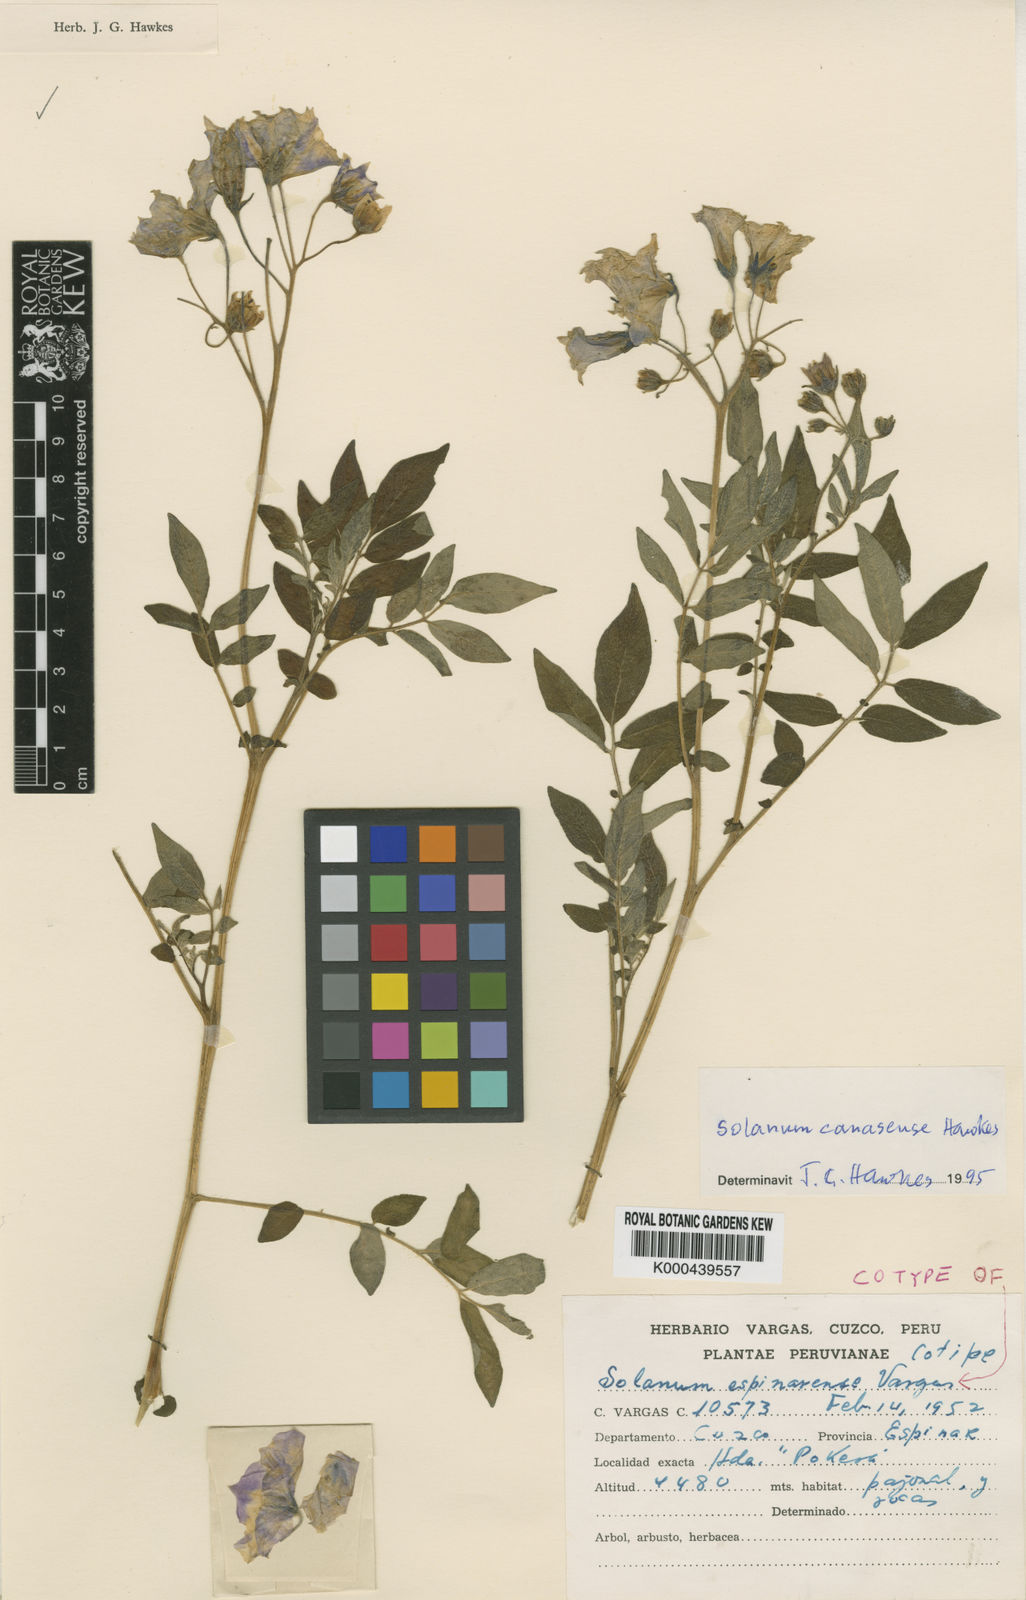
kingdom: Plantae
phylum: Tracheophyta
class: Magnoliopsida
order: Solanales
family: Solanaceae
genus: Solanum
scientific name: Solanum candolleanum
